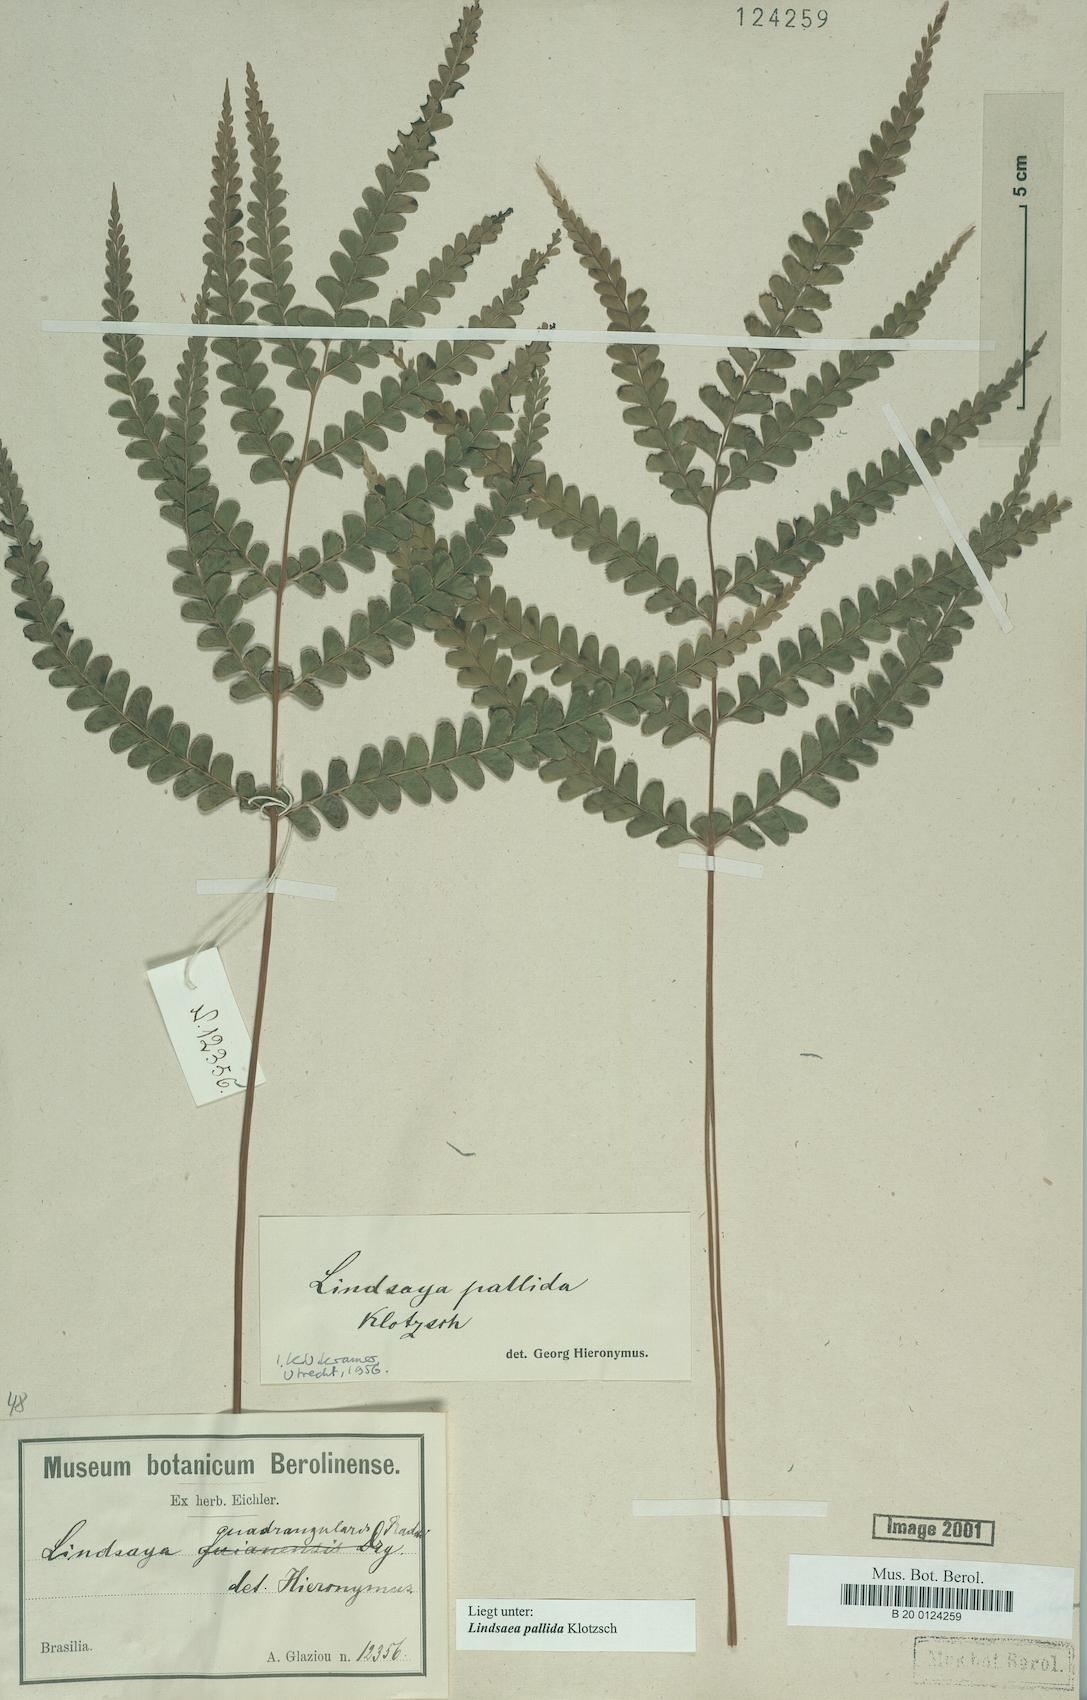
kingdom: Plantae
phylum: Tracheophyta
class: Polypodiopsida
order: Polypodiales
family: Lindsaeaceae
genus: Lindsaea
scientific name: Lindsaea pallida
